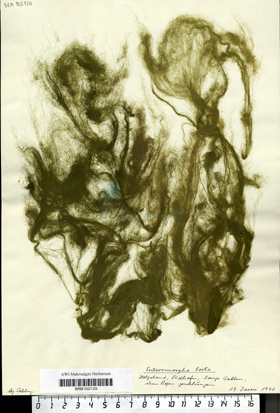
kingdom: Plantae
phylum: Chlorophyta
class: Ulvophyceae
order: Ulvales
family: Ulvaceae
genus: Ulva
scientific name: Ulva torta
